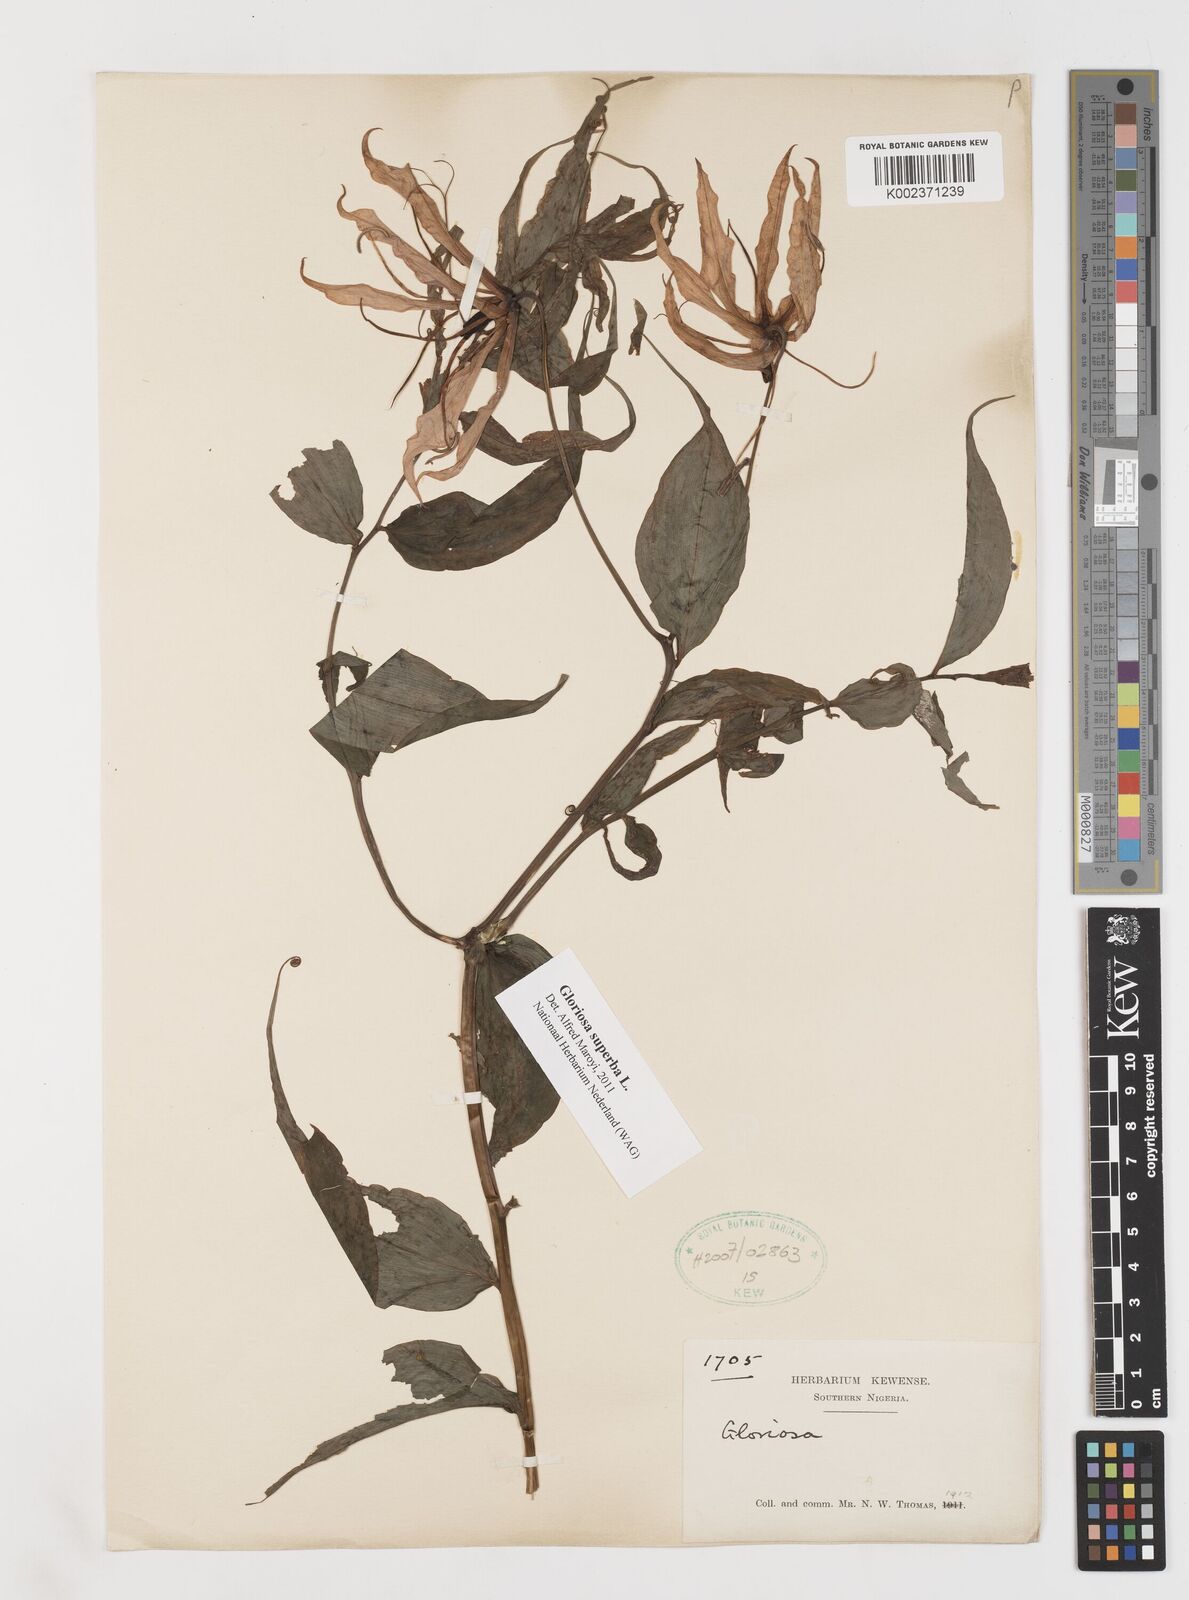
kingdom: Plantae
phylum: Tracheophyta
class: Liliopsida
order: Liliales
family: Colchicaceae
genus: Gloriosa
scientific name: Gloriosa superba
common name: Flame lily
